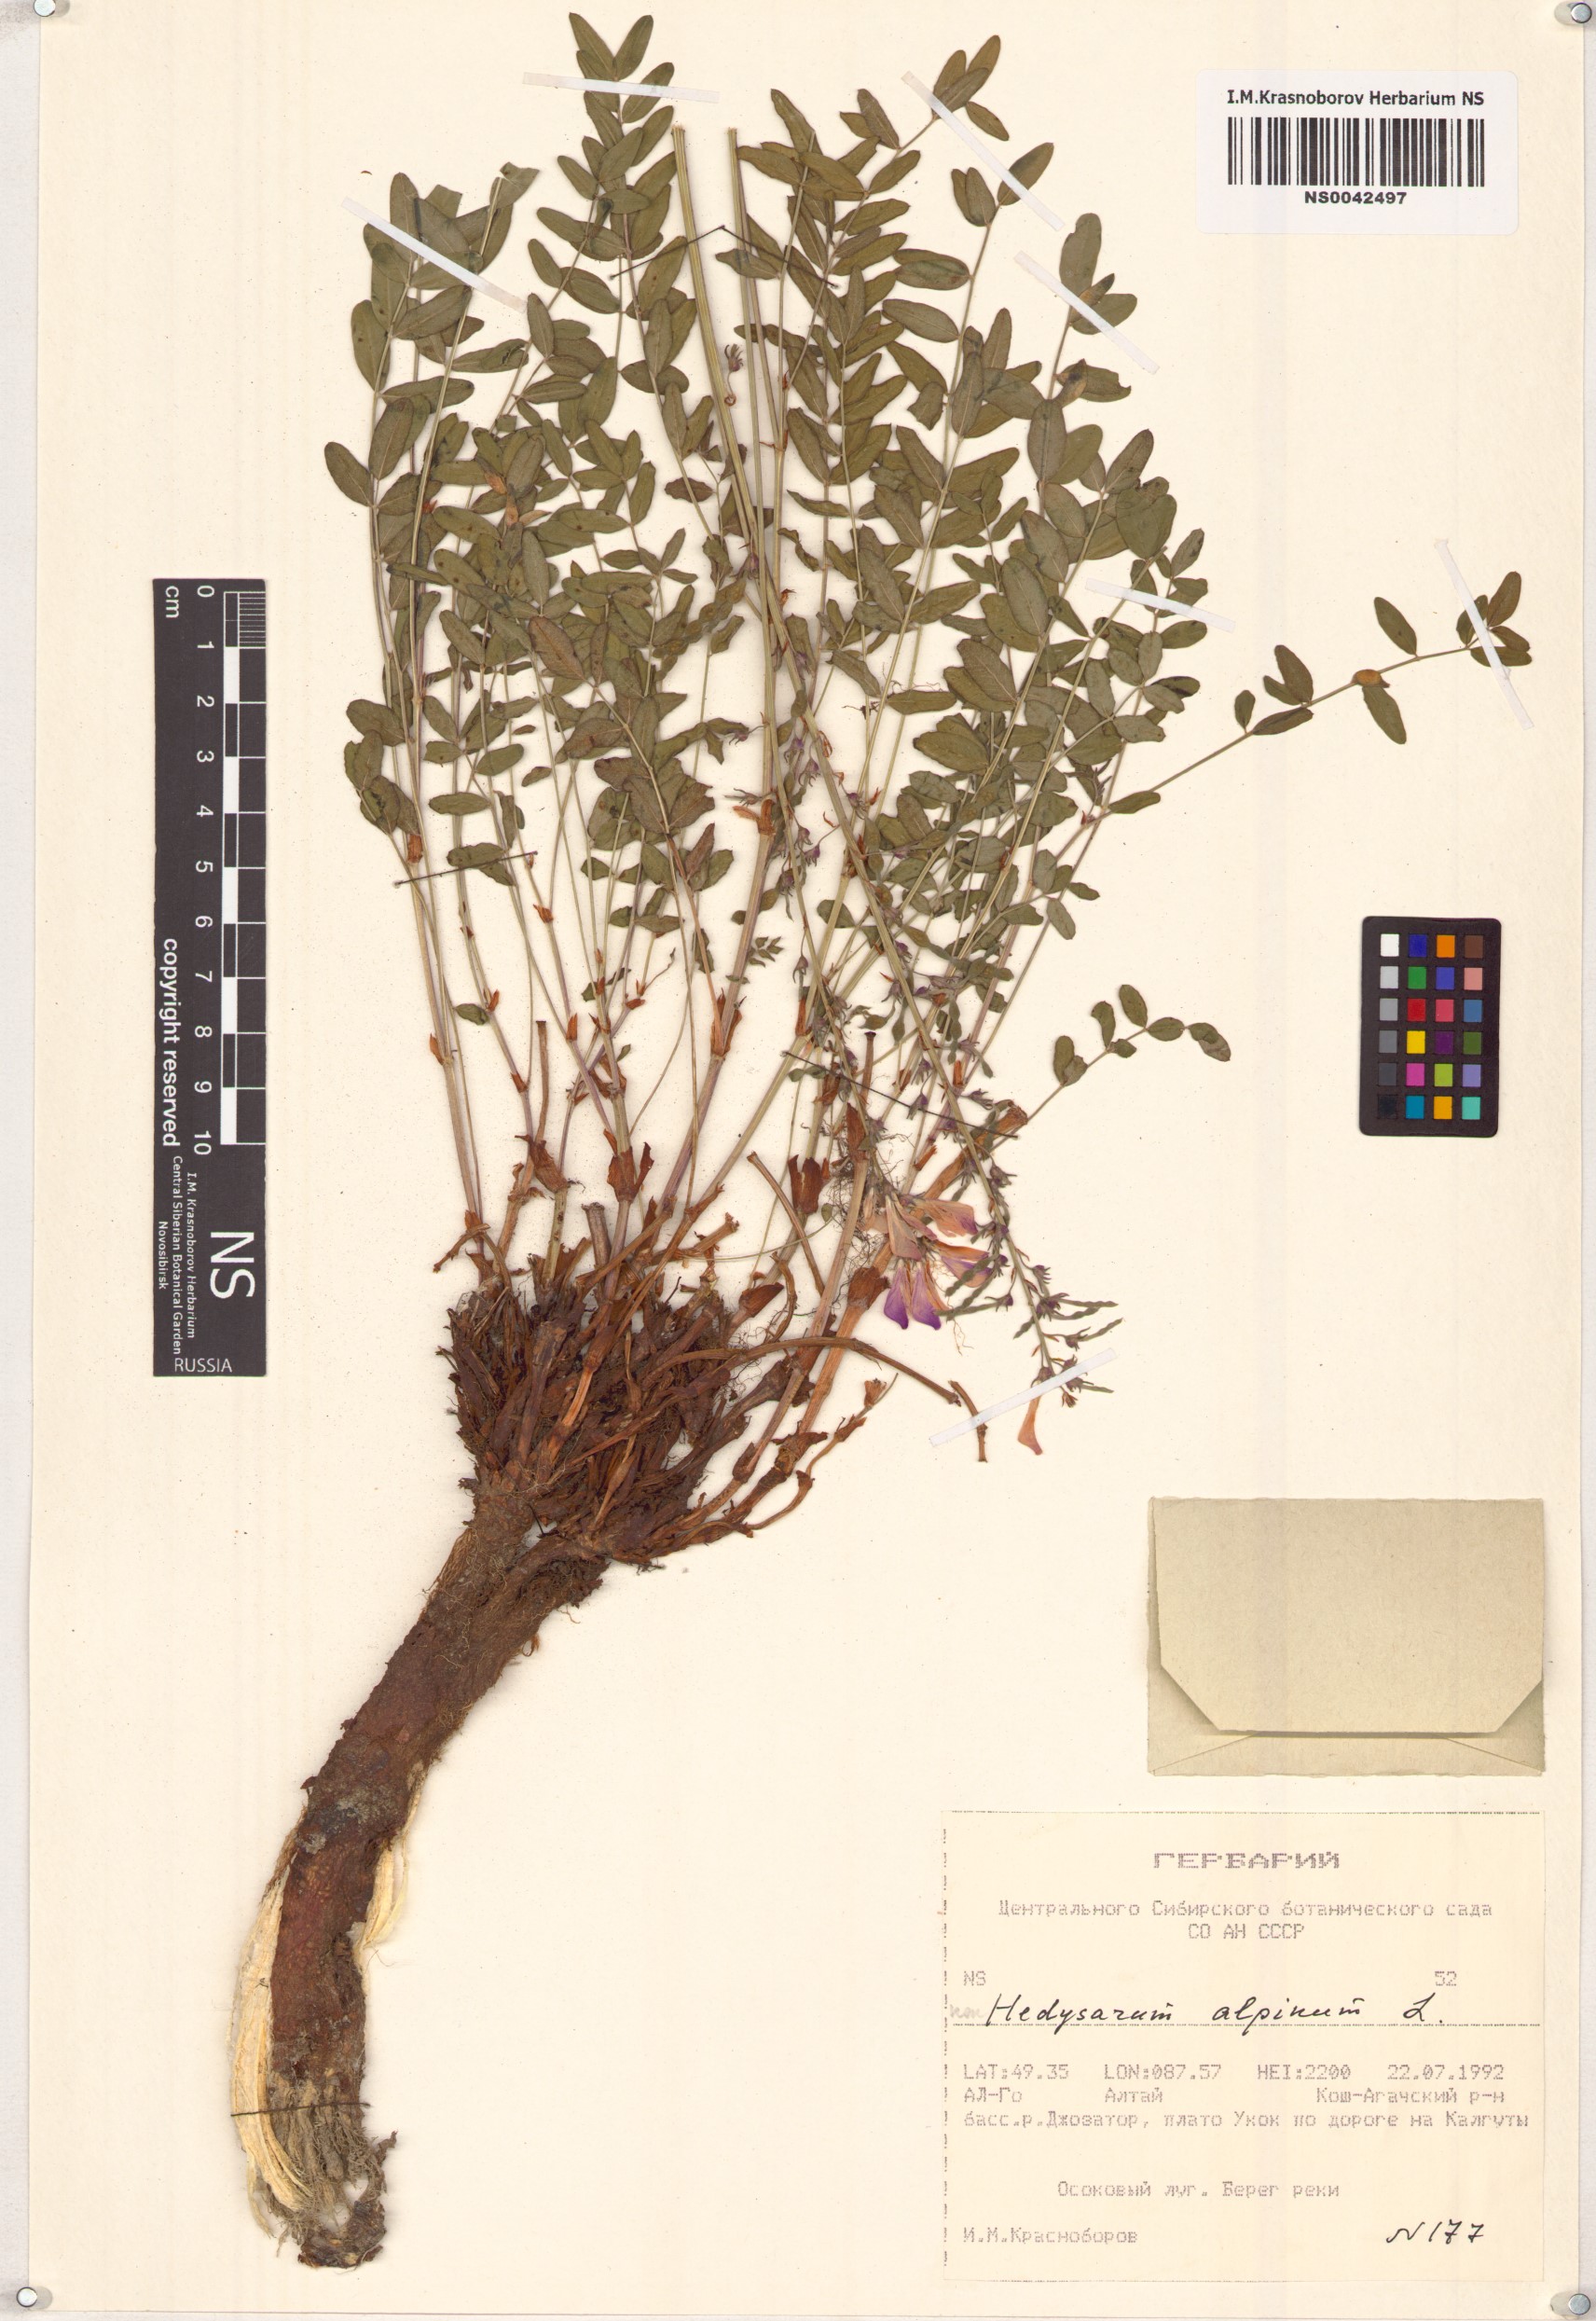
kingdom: Plantae
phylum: Tracheophyta
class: Magnoliopsida
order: Fabales
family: Fabaceae
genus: Hedysarum
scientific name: Hedysarum alpinum
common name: Alpine sweet-vetch
